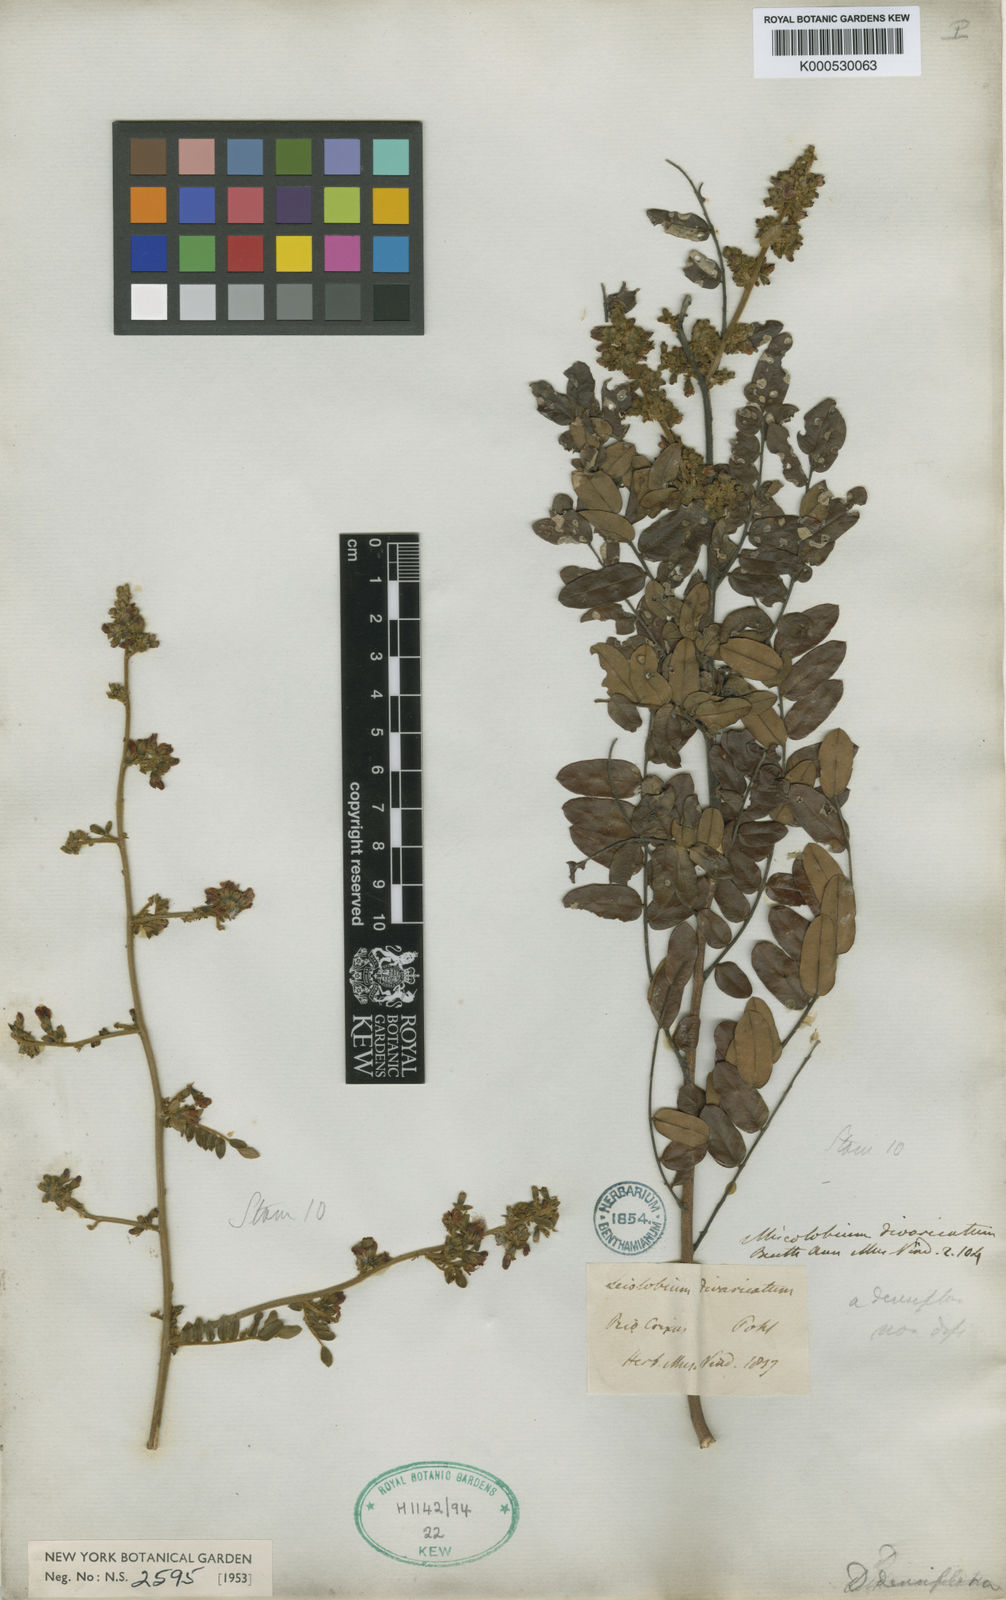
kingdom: Plantae
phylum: Tracheophyta
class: Magnoliopsida
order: Fabales
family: Fabaceae
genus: Dalbergia
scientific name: Dalbergia densiflora
